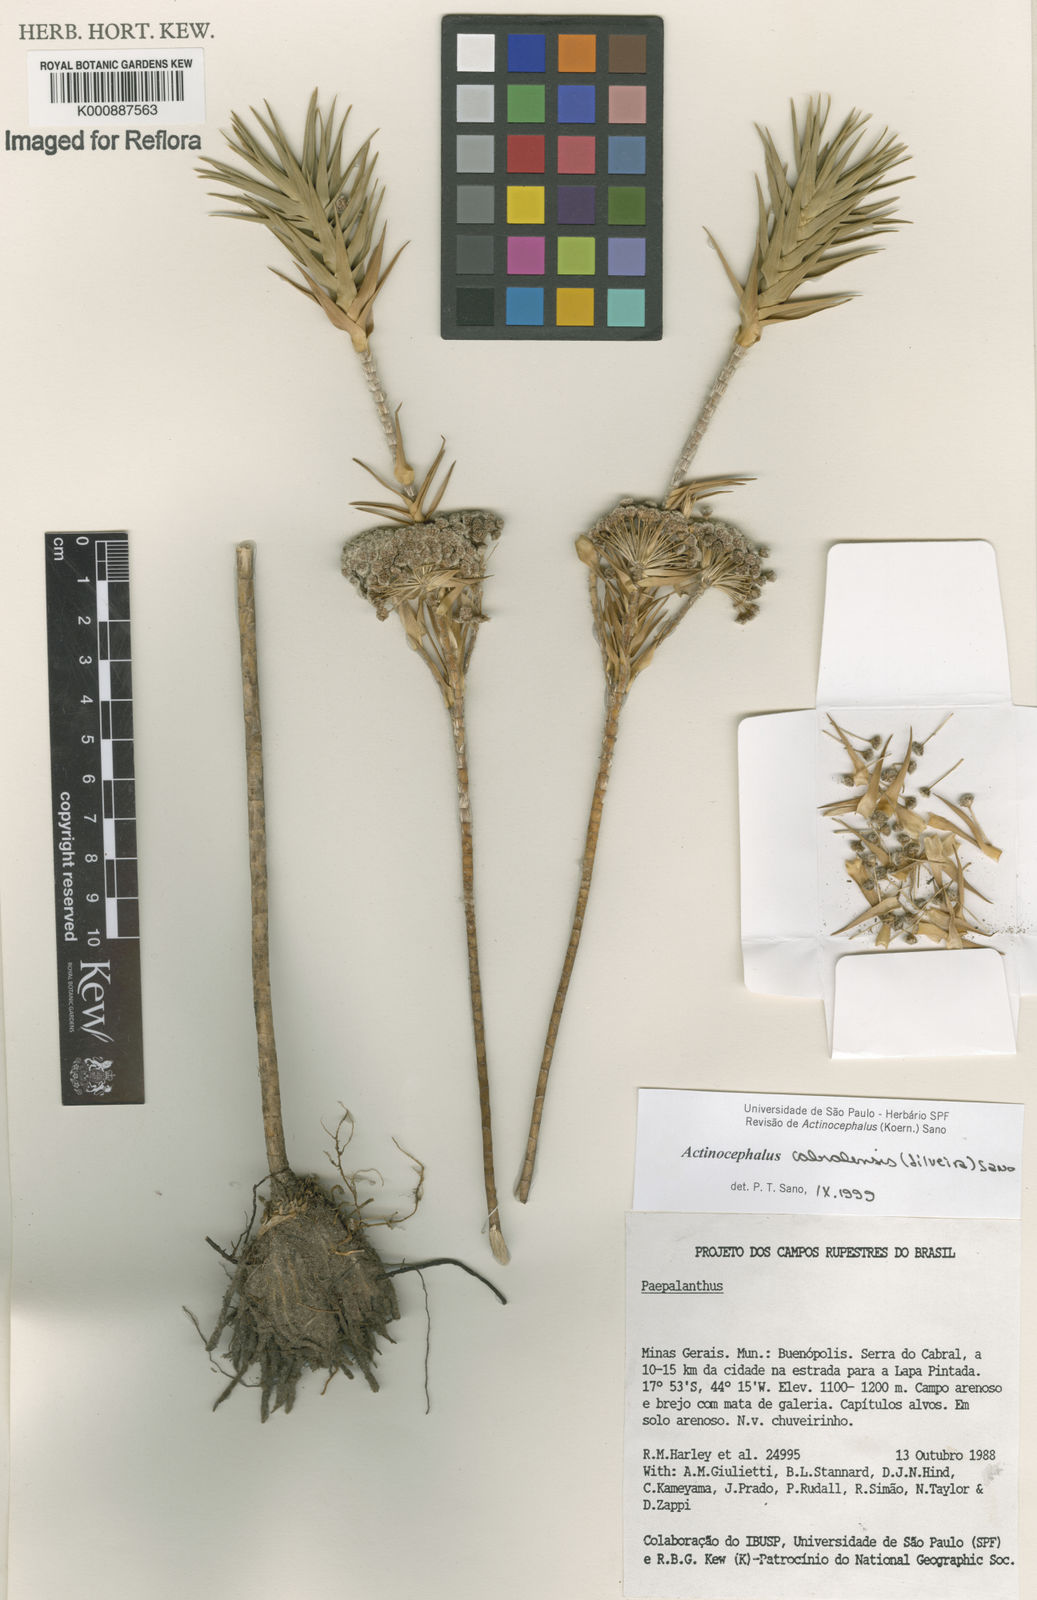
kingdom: Plantae
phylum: Tracheophyta
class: Liliopsida
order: Poales
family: Eriocaulaceae
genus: Paepalanthus
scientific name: Paepalanthus cabralensis
